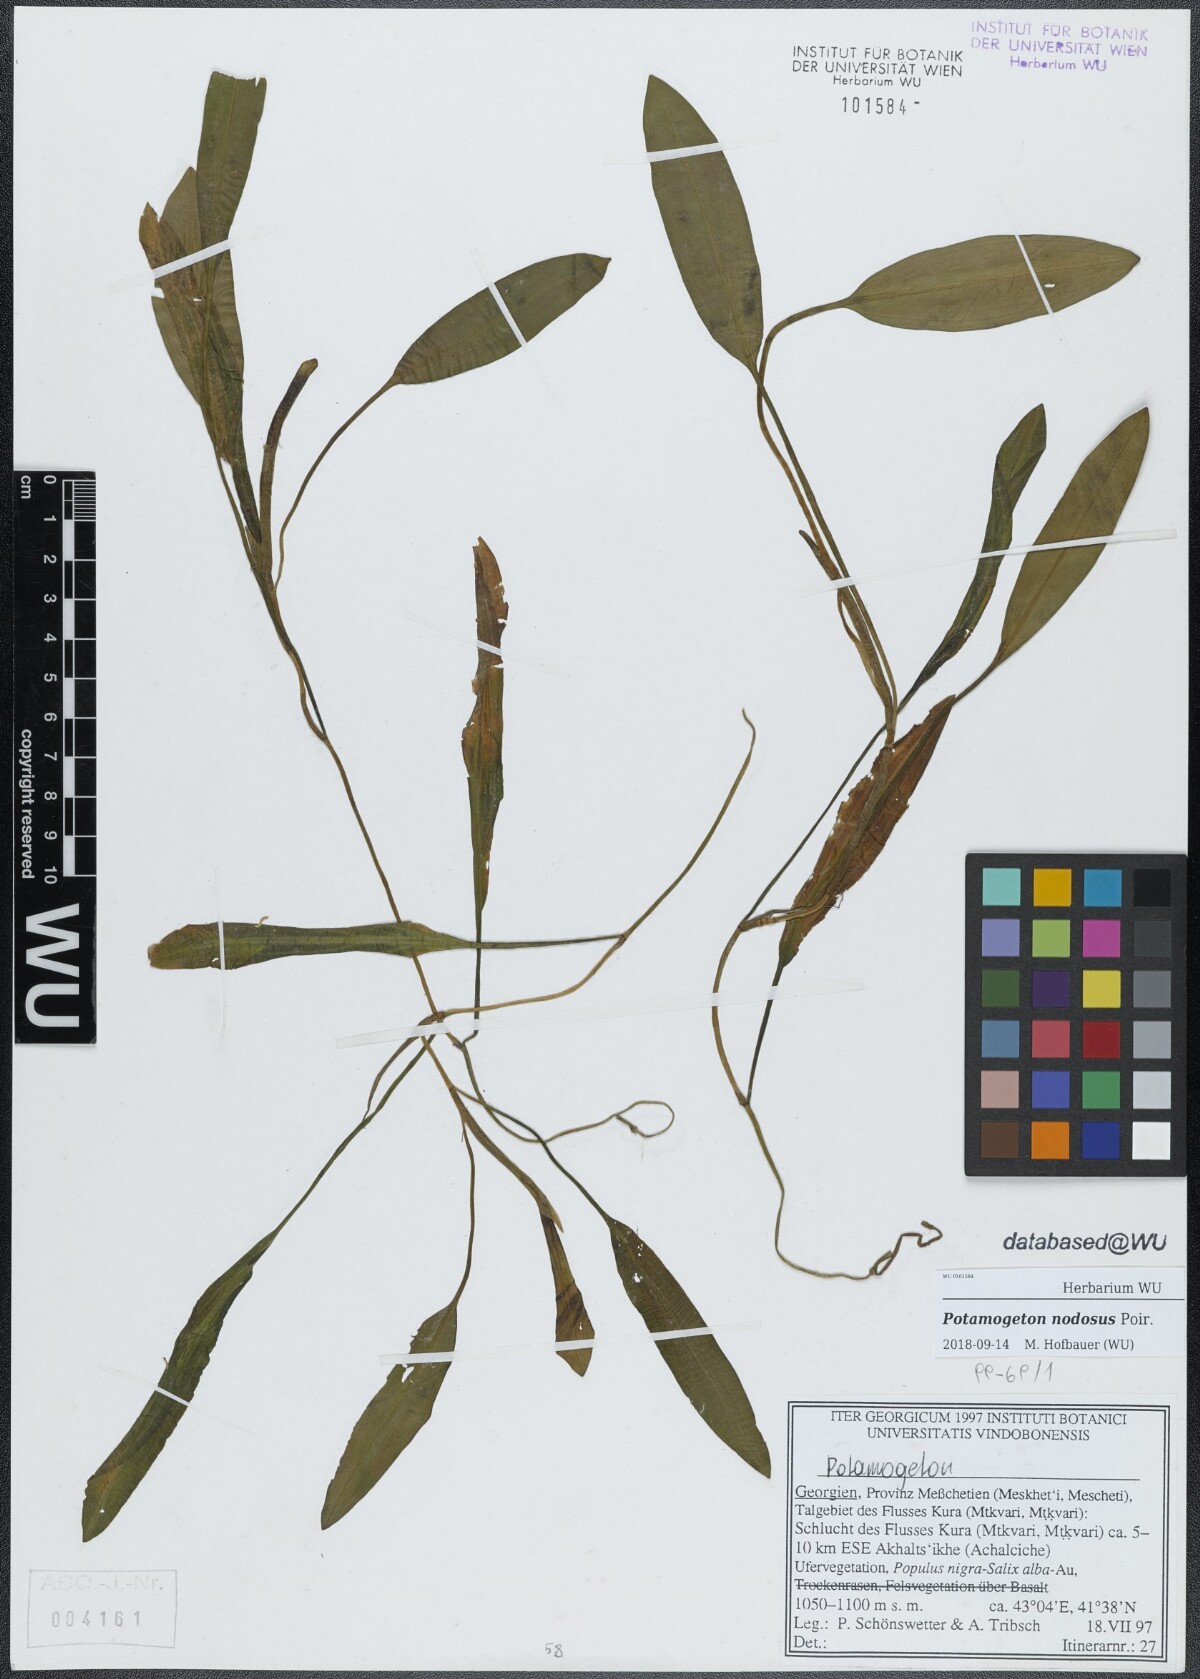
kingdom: Plantae
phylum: Tracheophyta
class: Liliopsida
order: Alismatales
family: Potamogetonaceae
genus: Potamogeton
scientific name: Potamogeton nodosus
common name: Loddon pondweed
